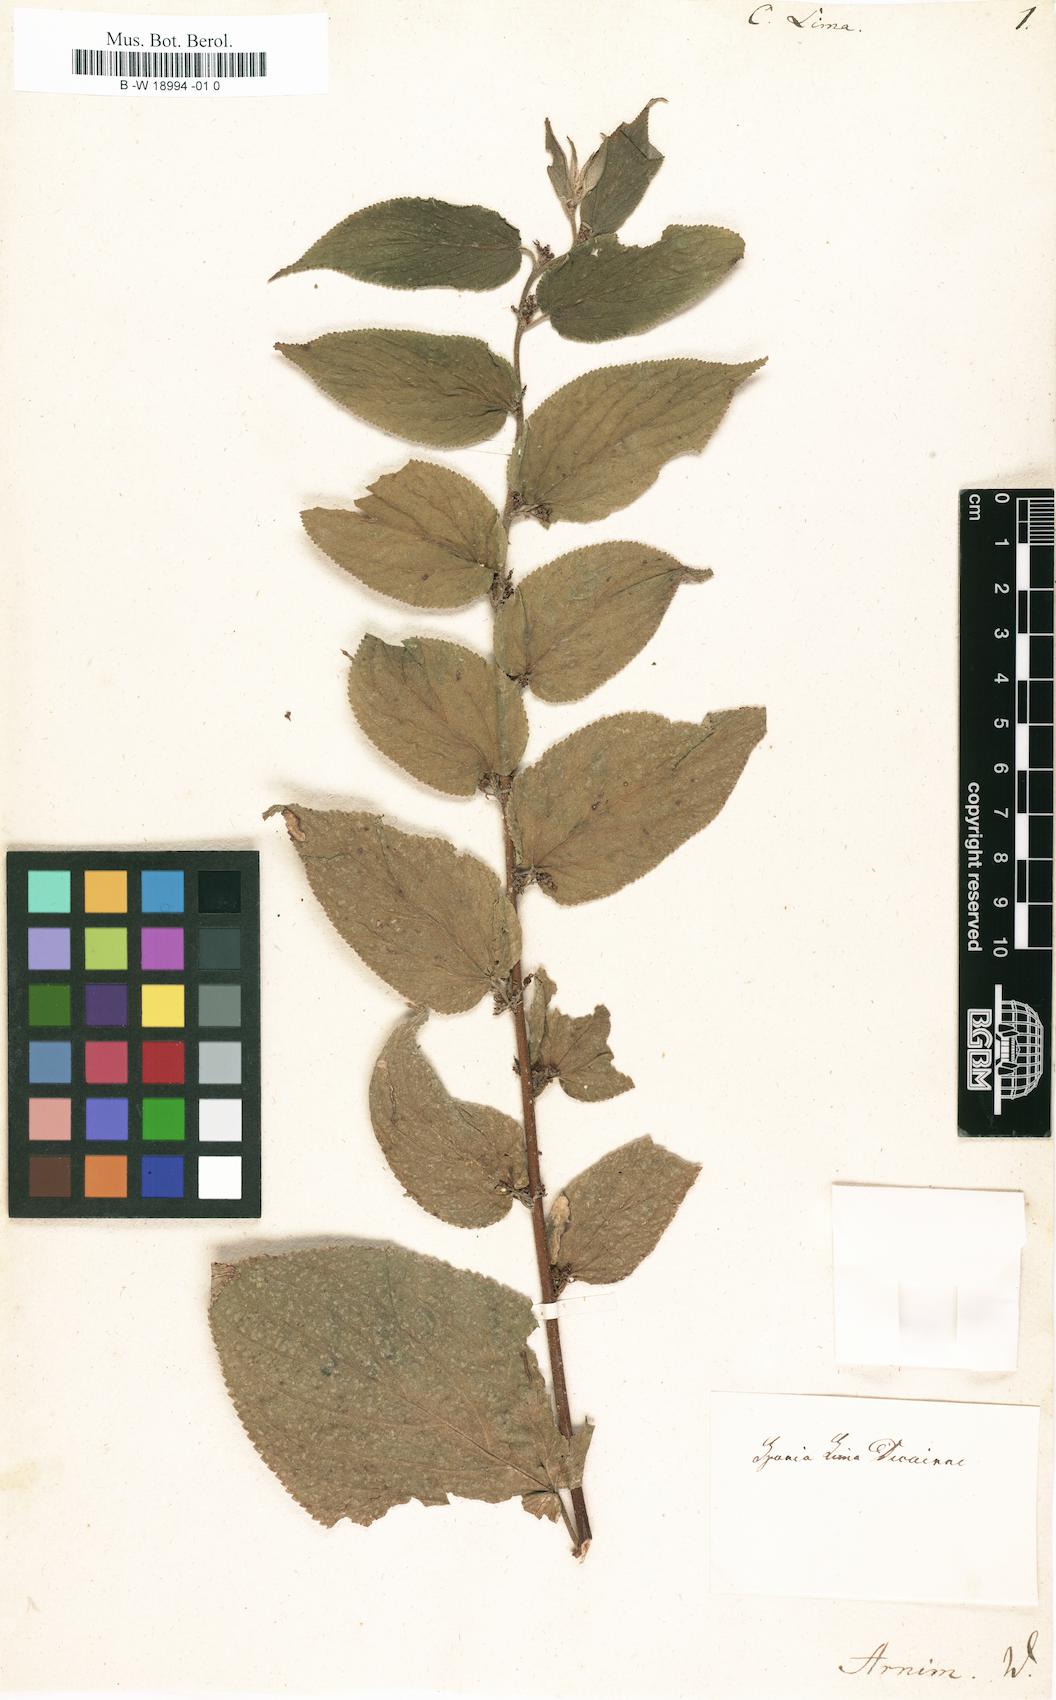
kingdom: Plantae
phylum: Tracheophyta
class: Magnoliopsida
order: Rosales
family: Cannabaceae
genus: Trema
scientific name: Trema micranthum
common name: Jamaican nettletree
